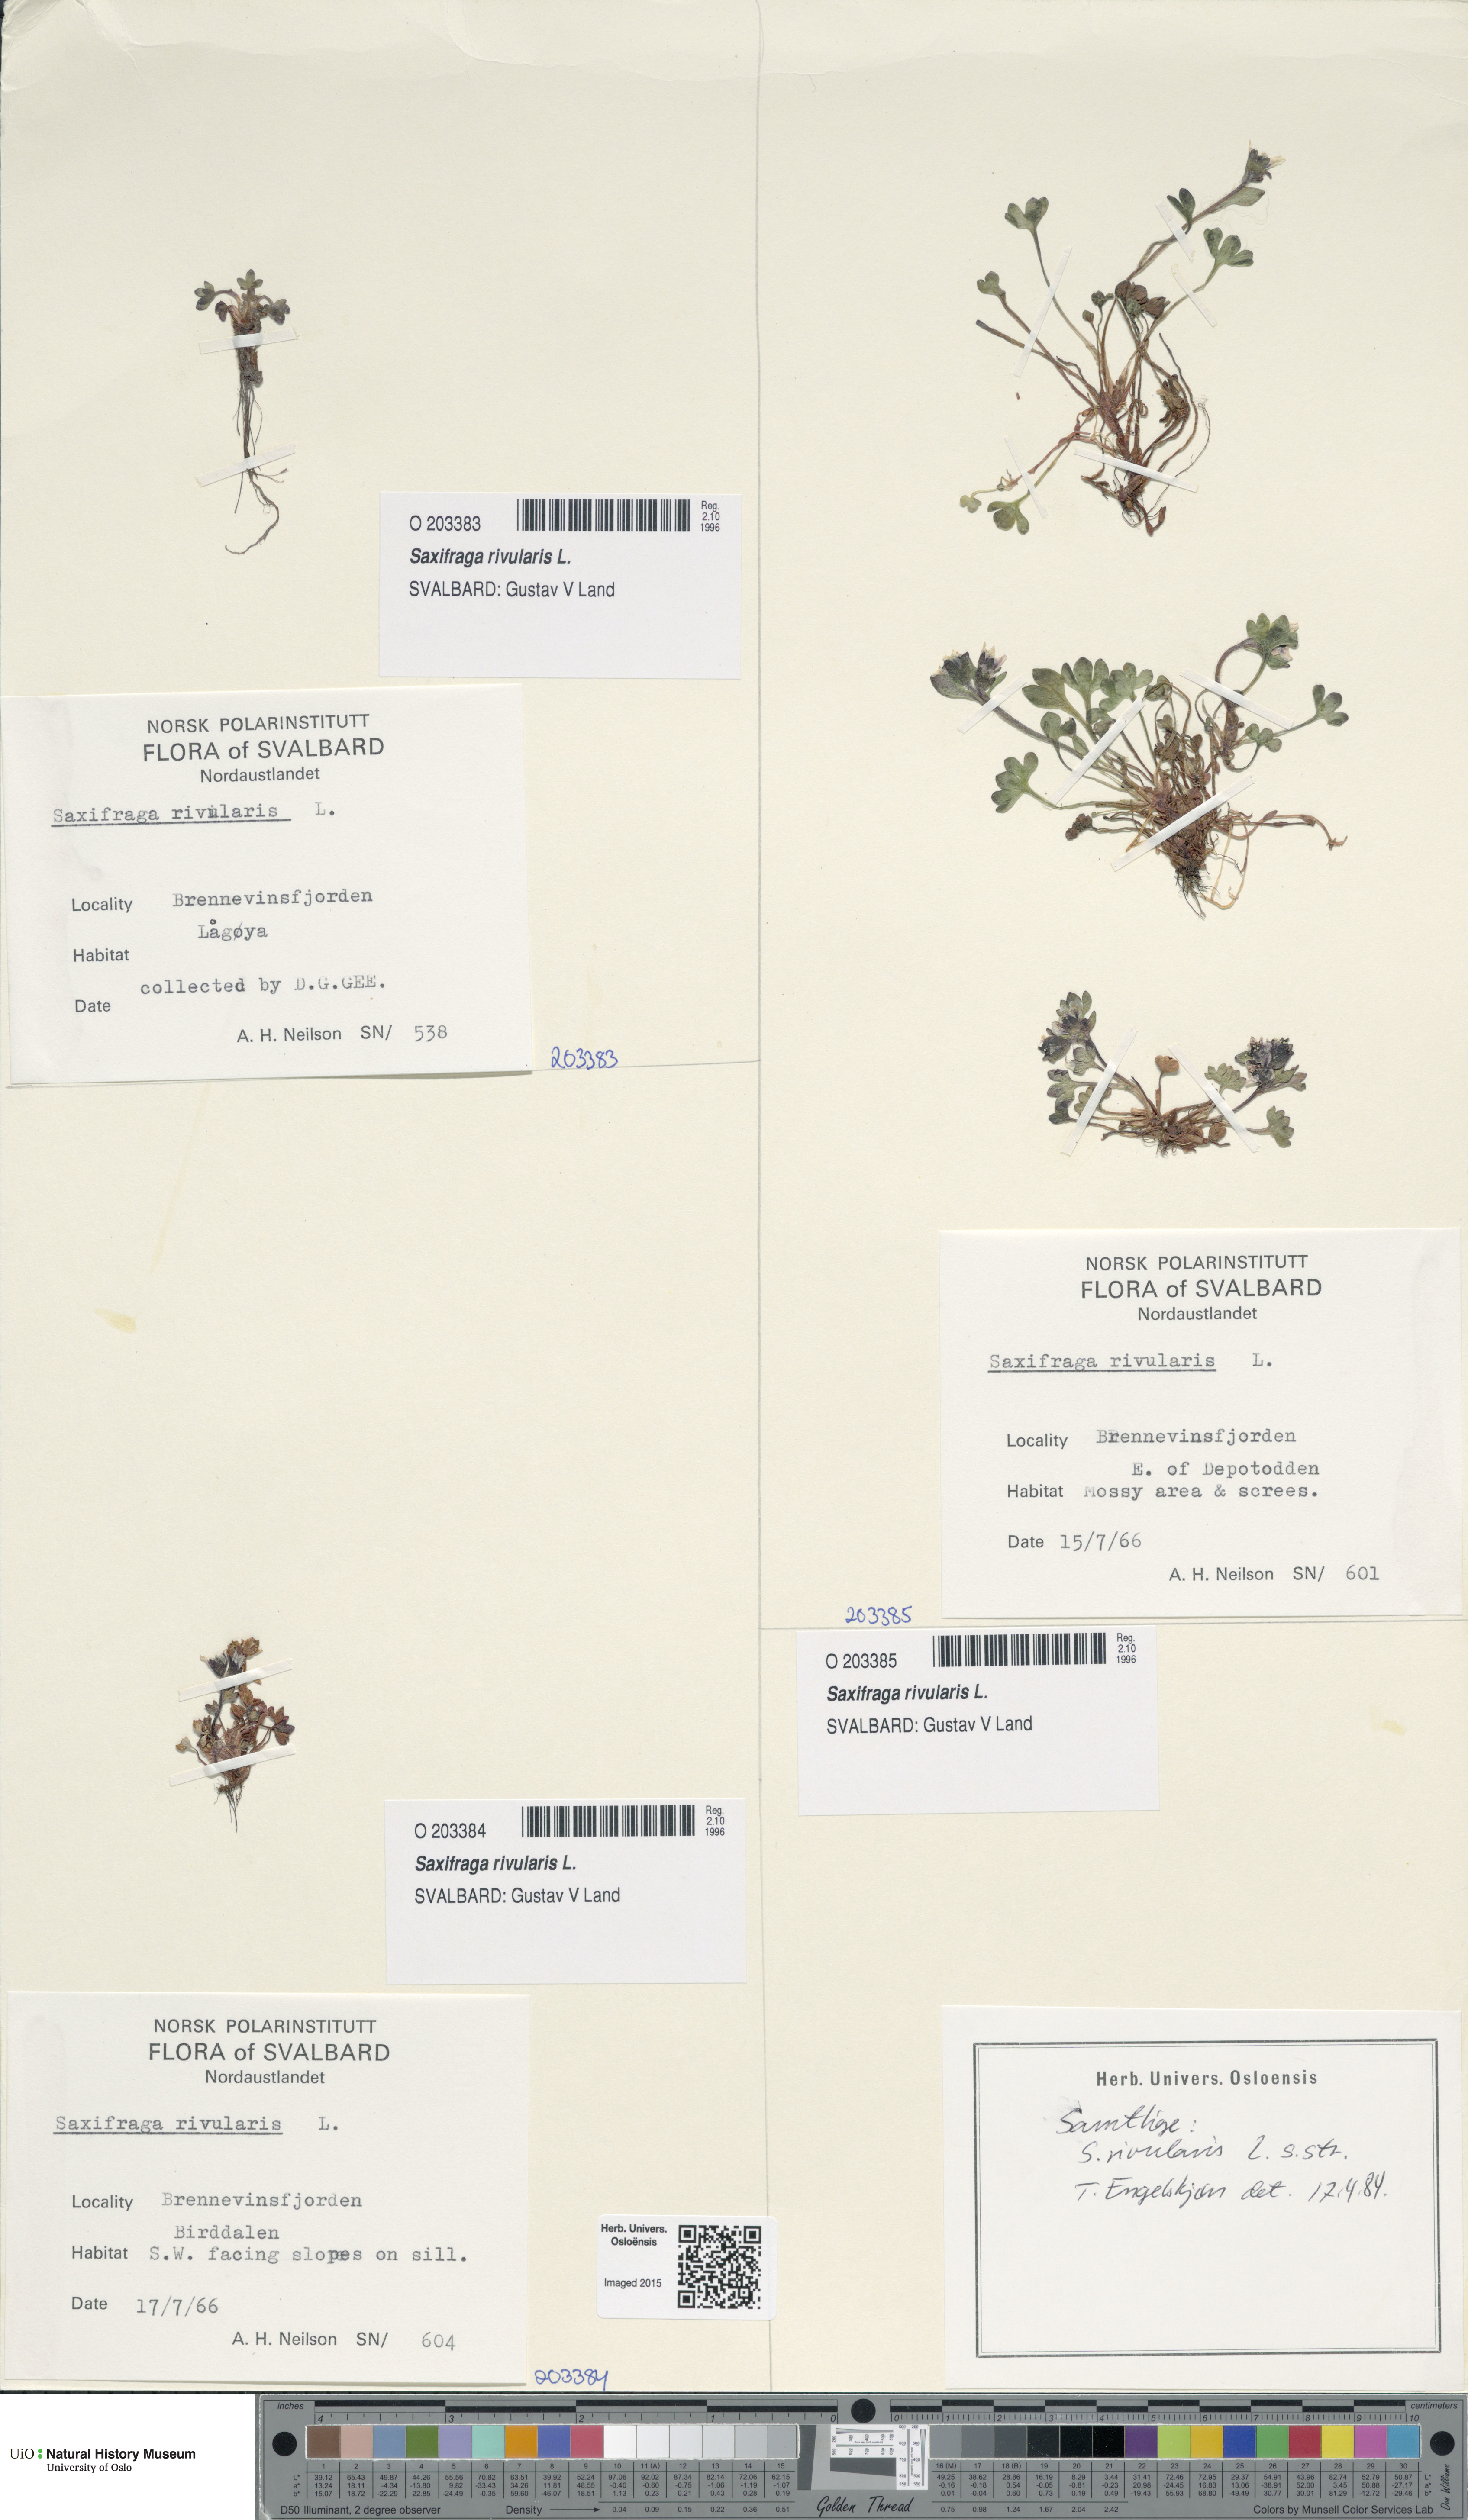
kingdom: Plantae
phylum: Tracheophyta
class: Magnoliopsida
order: Saxifragales
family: Saxifragaceae
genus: Saxifraga
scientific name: Saxifraga rivularis
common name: Highland saxifrage
